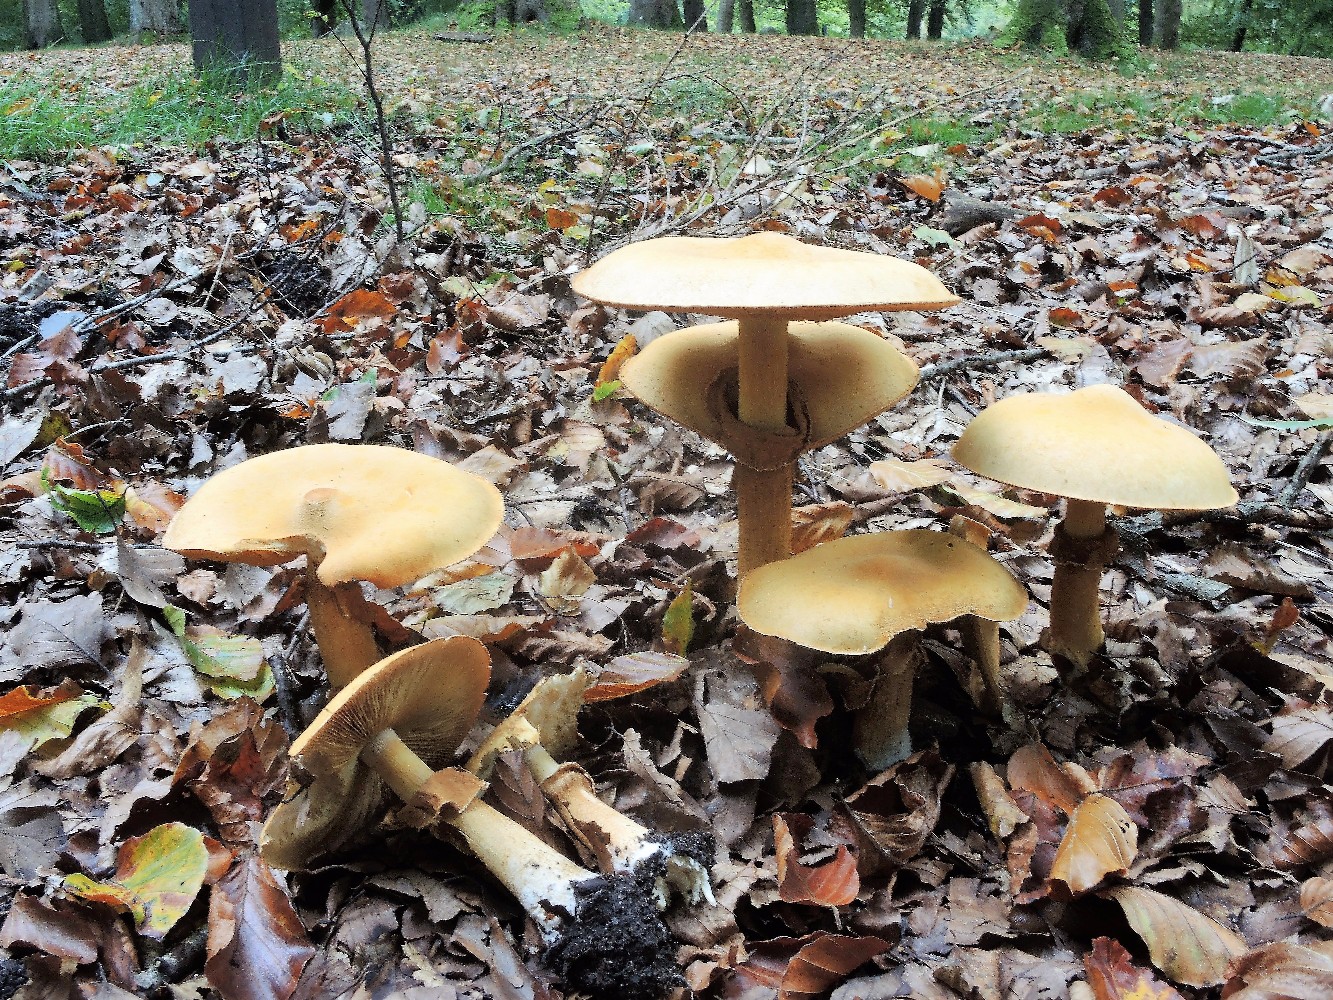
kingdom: Fungi
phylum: Basidiomycota
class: Agaricomycetes
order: Agaricales
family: Tricholomataceae
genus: Phaeolepiota
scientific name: Phaeolepiota aurea
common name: gyldenhat
